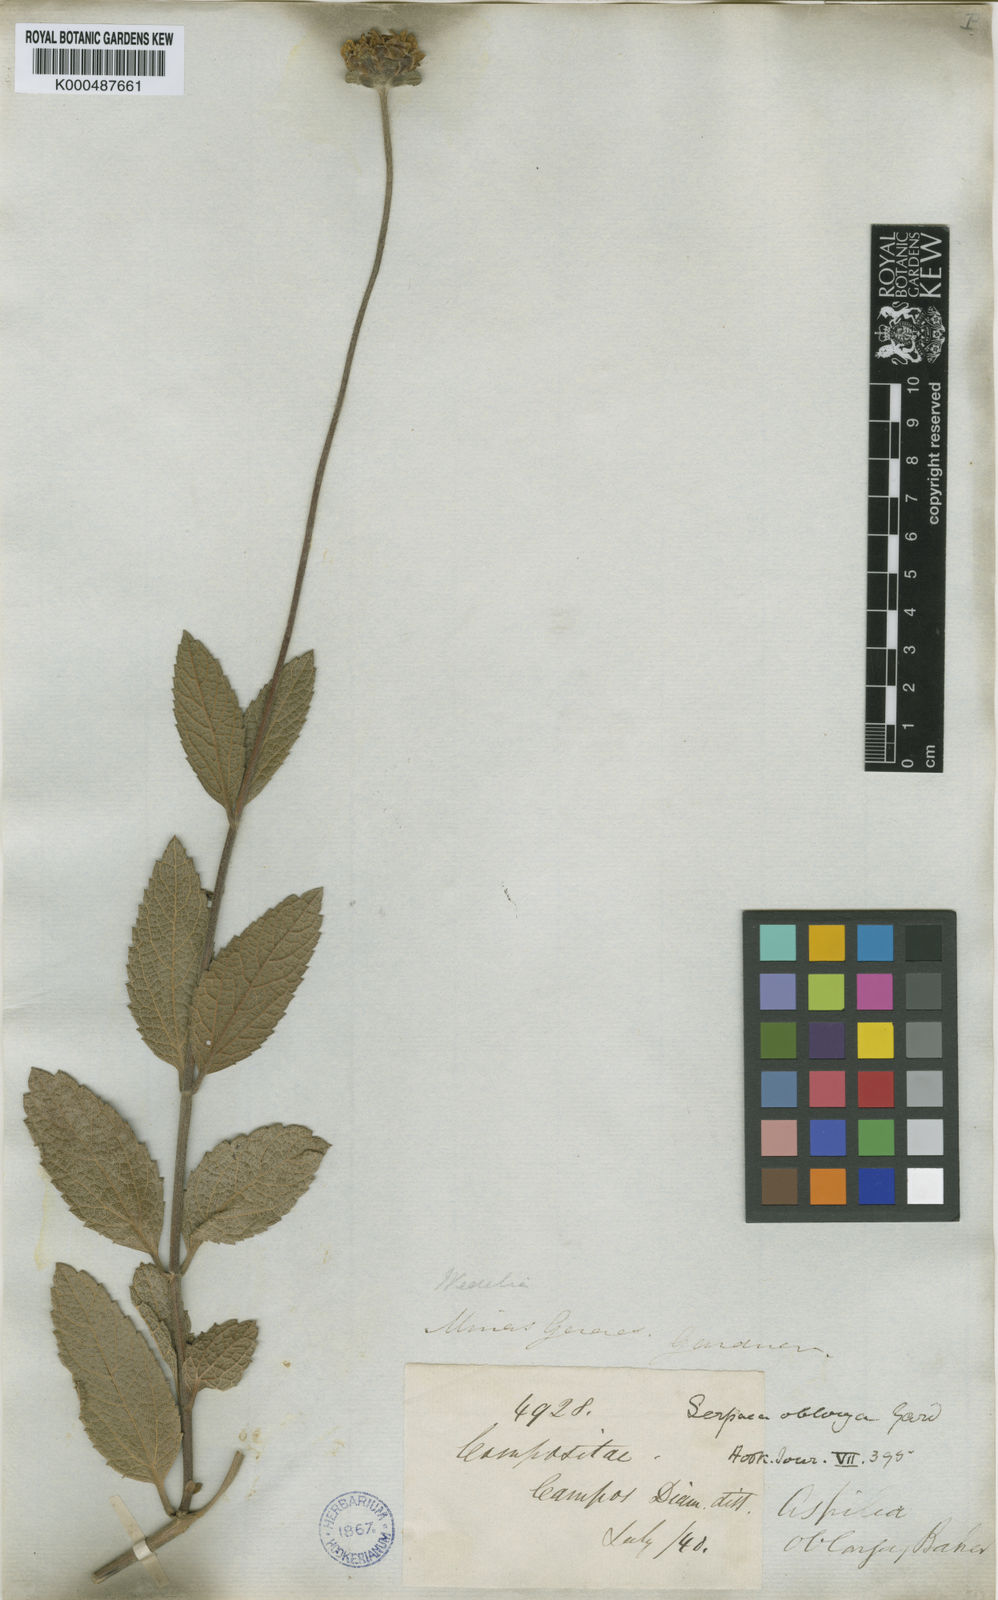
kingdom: Plantae
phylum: Tracheophyta
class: Magnoliopsida
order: Asterales
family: Asteraceae
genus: Dimerostemma
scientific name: Dimerostemma oblongum
